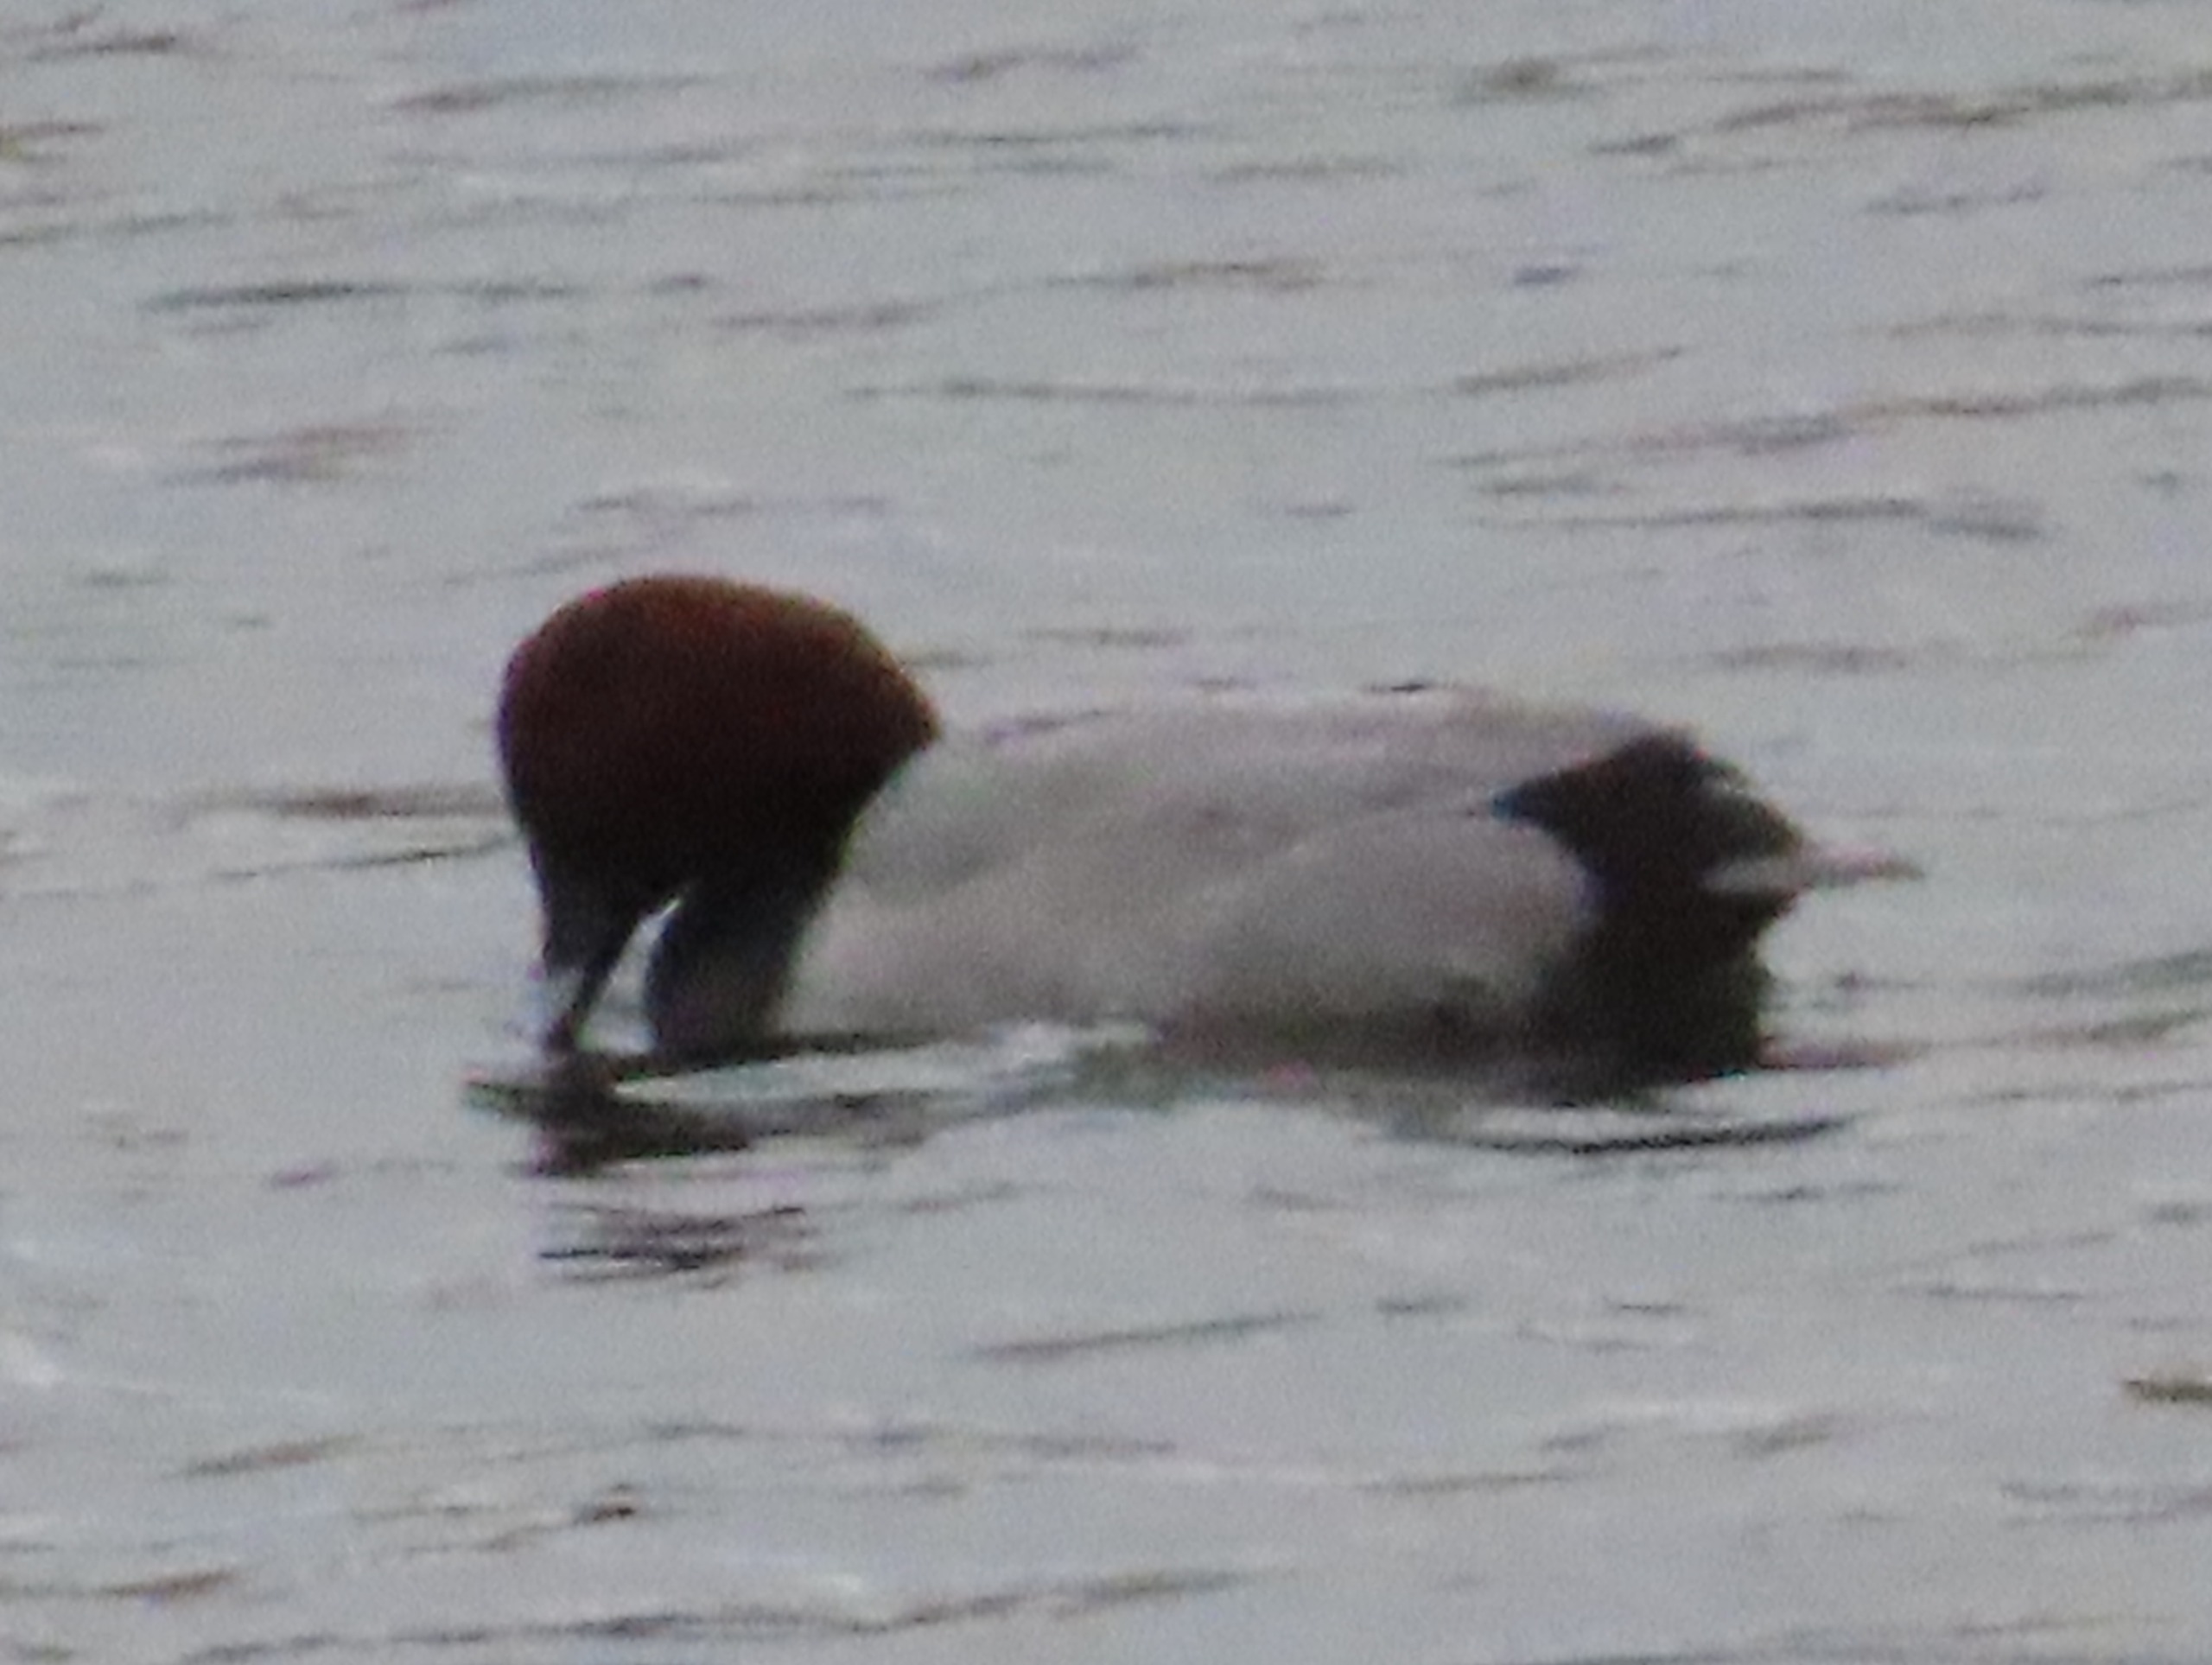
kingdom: Animalia
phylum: Chordata
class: Aves
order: Anseriformes
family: Anatidae
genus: Aythya
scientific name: Aythya ferina
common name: Taffeland
